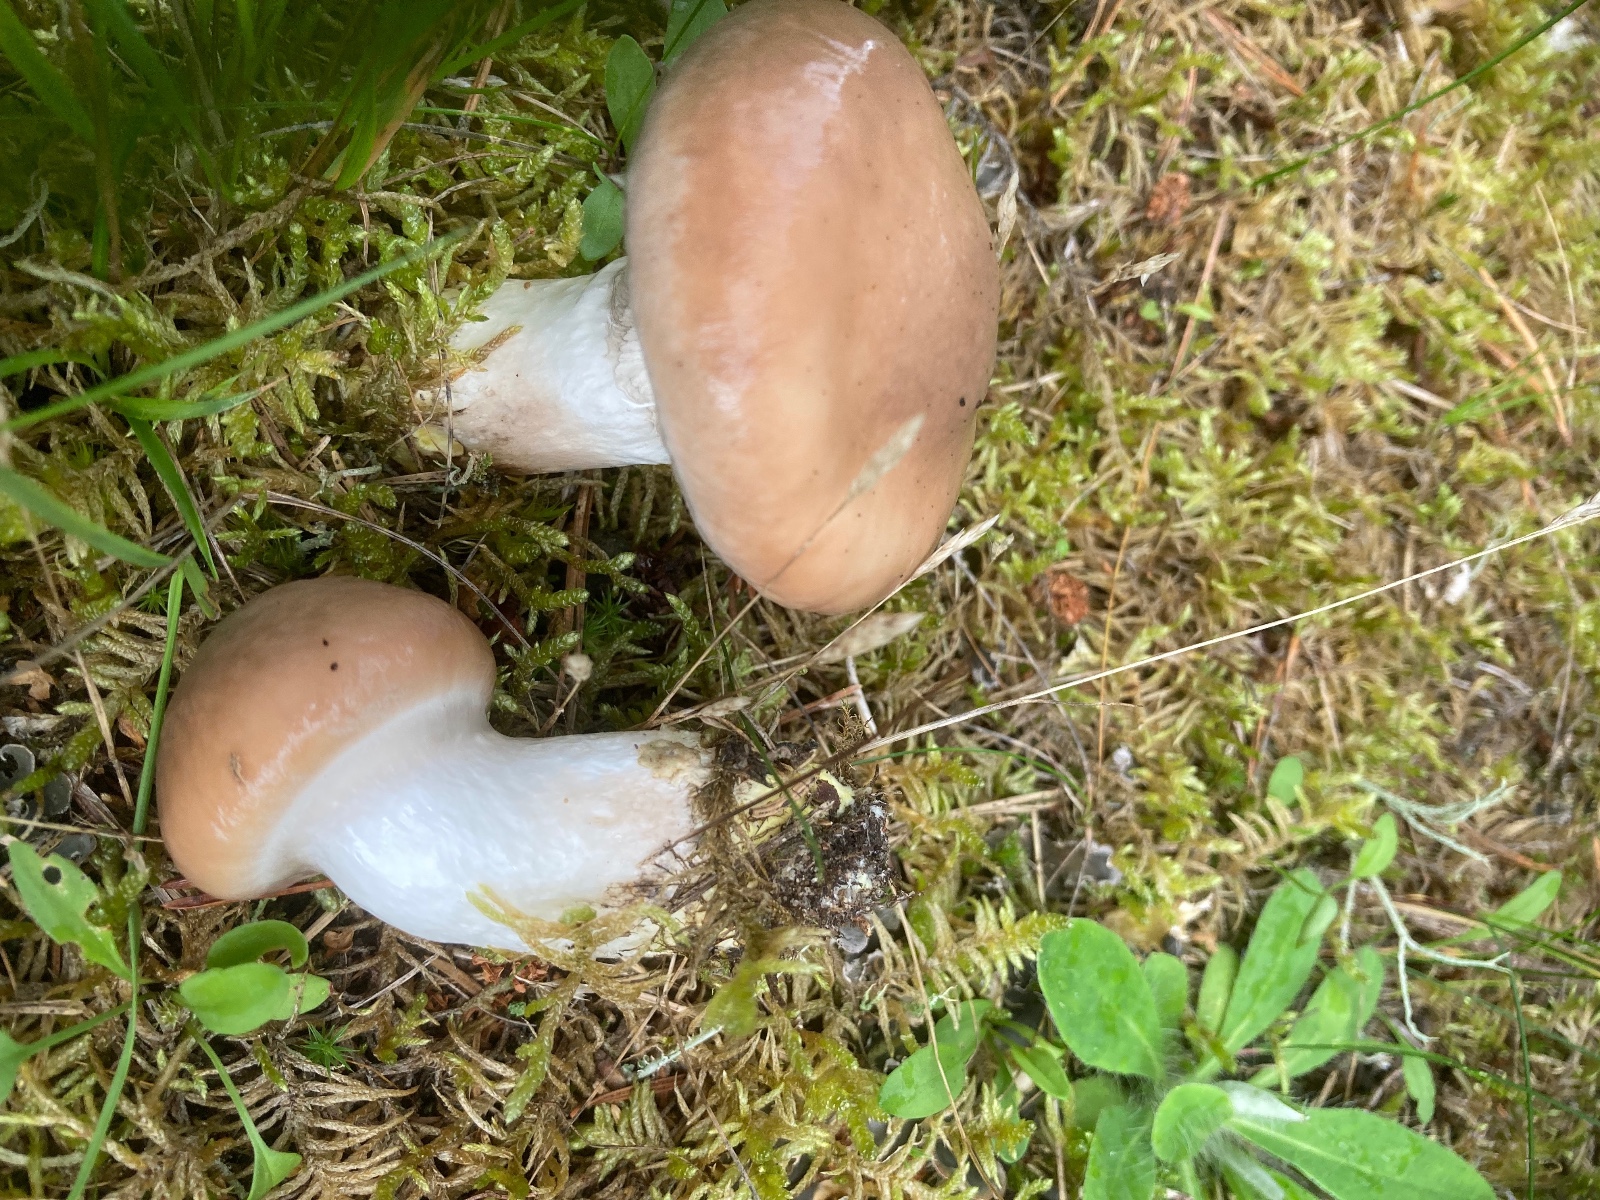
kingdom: Fungi
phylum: Basidiomycota
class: Agaricomycetes
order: Boletales
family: Gomphidiaceae
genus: Gomphidius
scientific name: Gomphidius glutinosus
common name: grå slimslør
